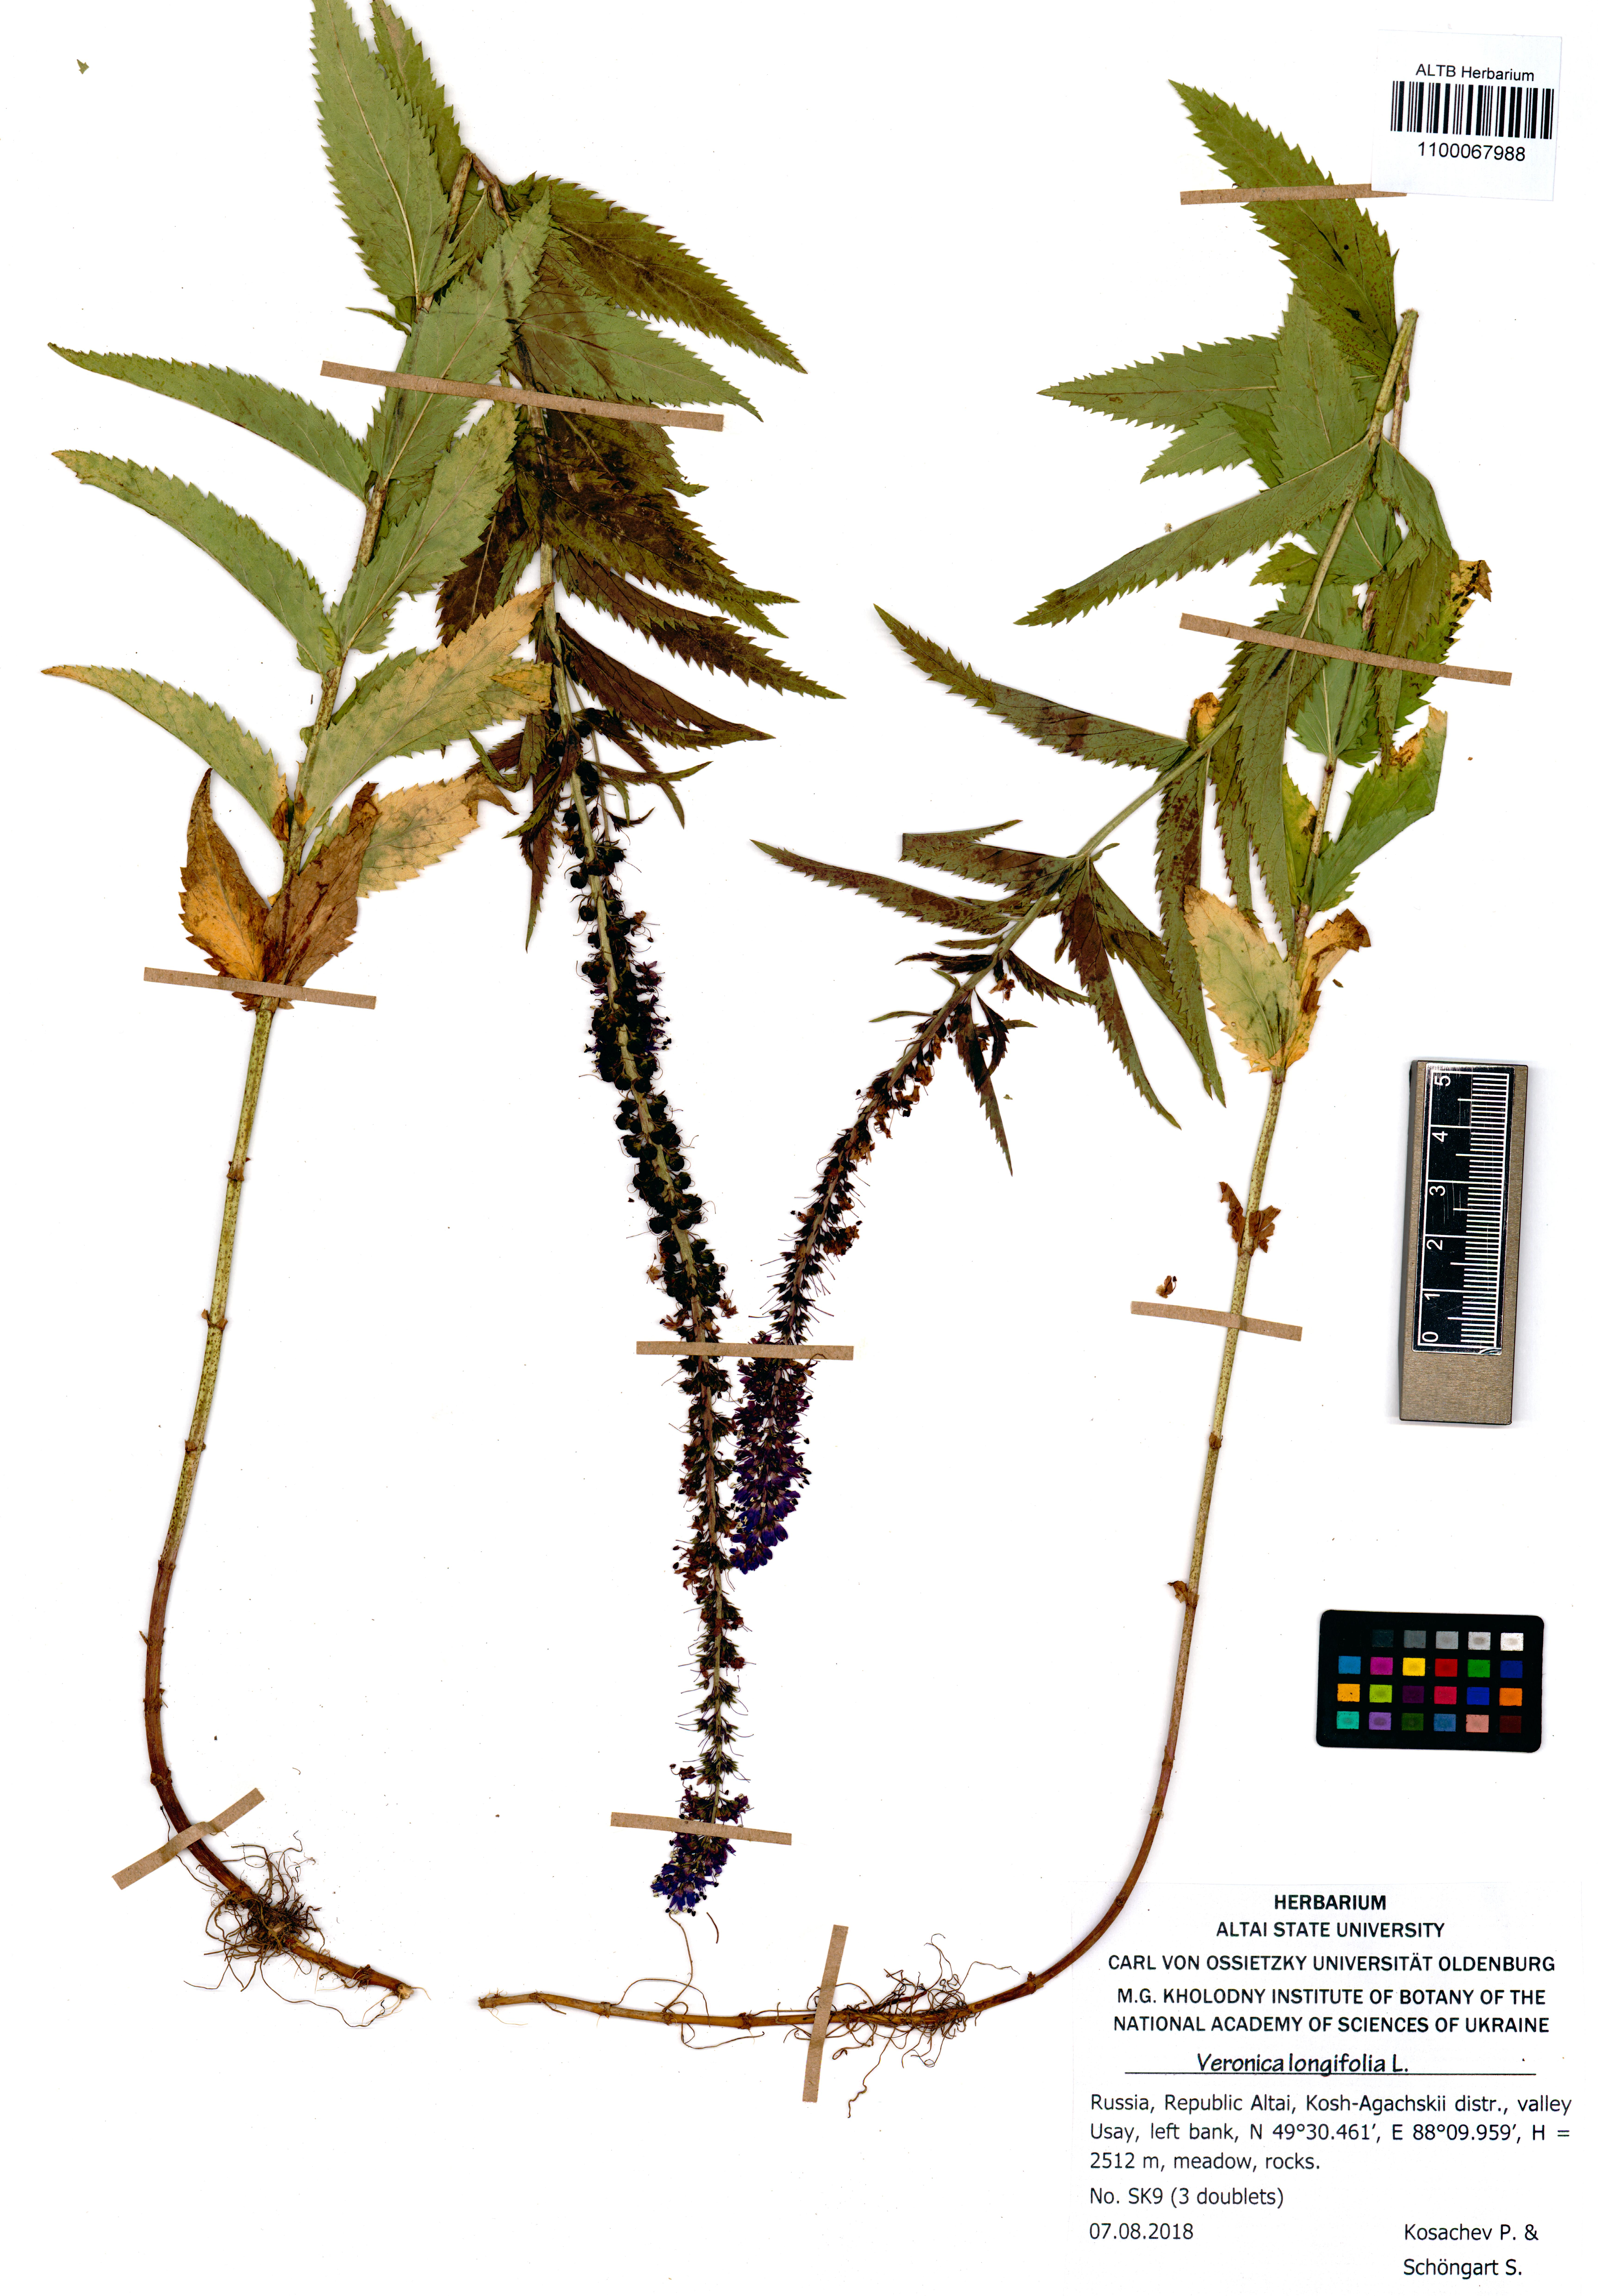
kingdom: Plantae
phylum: Tracheophyta
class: Magnoliopsida
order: Lamiales
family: Plantaginaceae
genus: Veronica
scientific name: Veronica longifolia
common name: Garden speedwell
